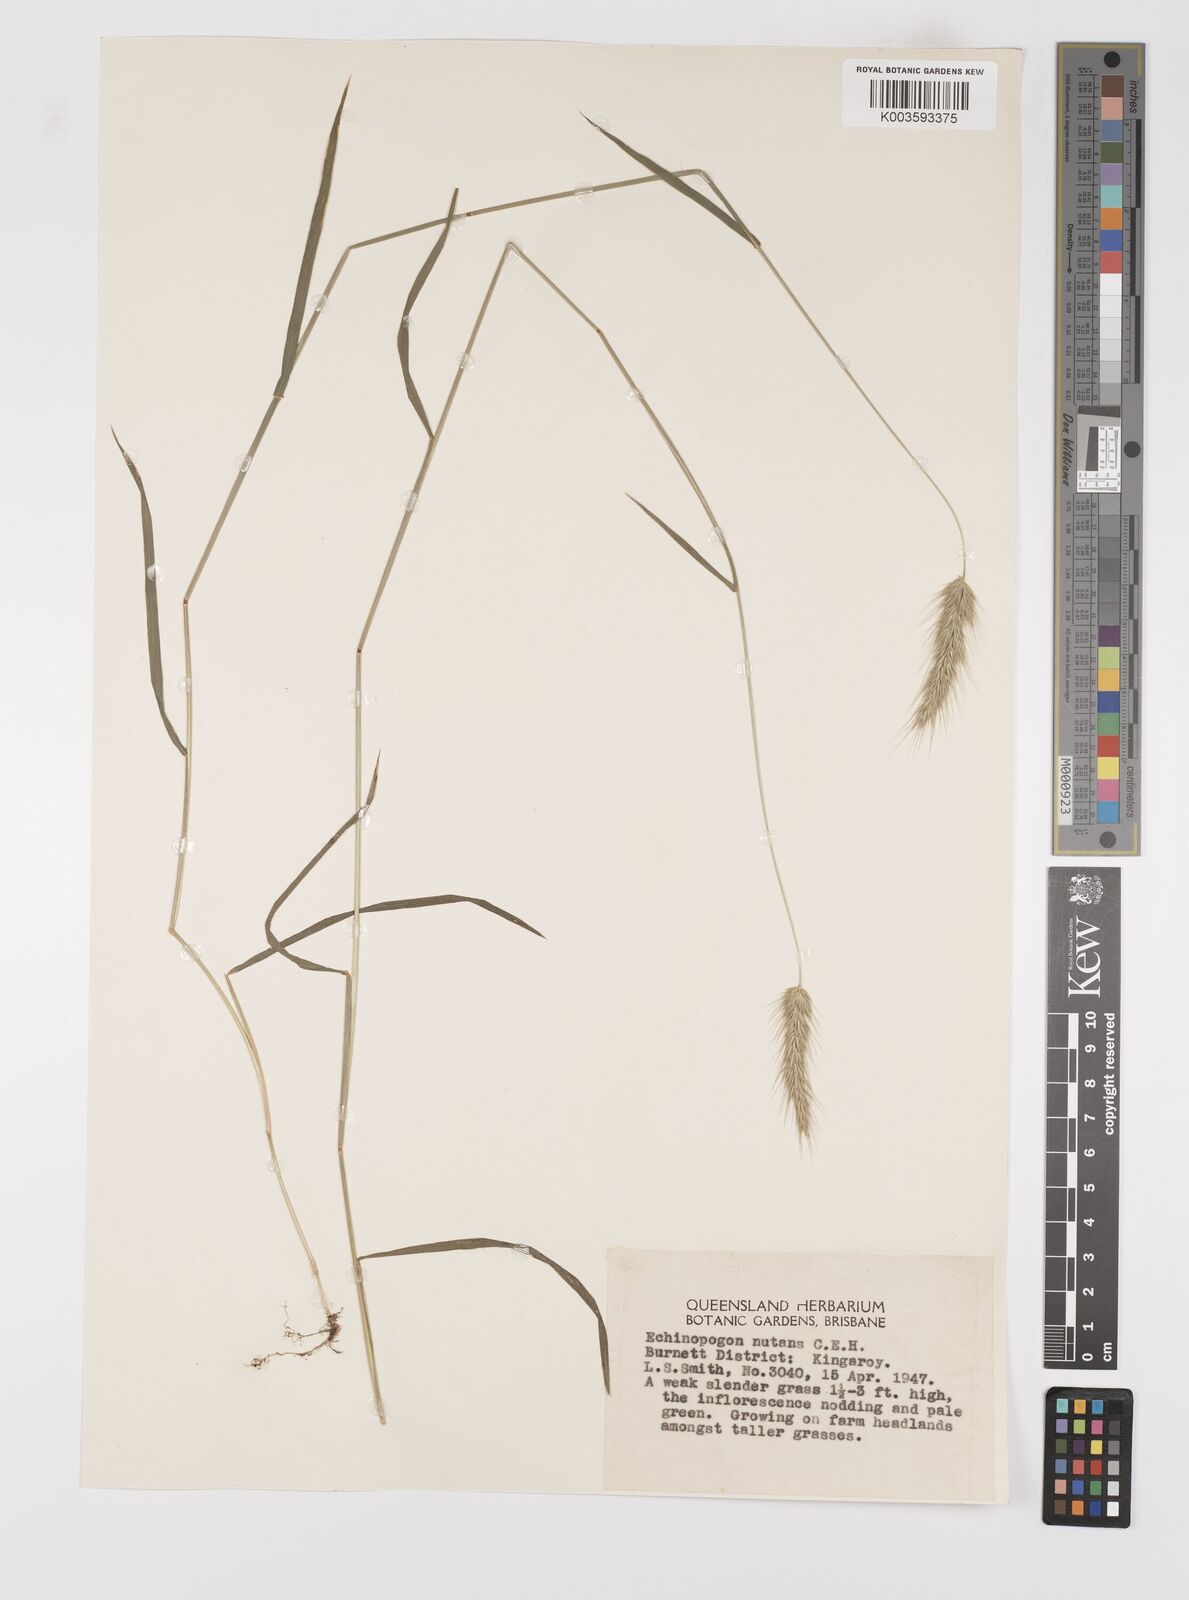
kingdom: Plantae
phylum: Tracheophyta
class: Liliopsida
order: Poales
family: Poaceae
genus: Echinopogon
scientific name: Echinopogon nutans
